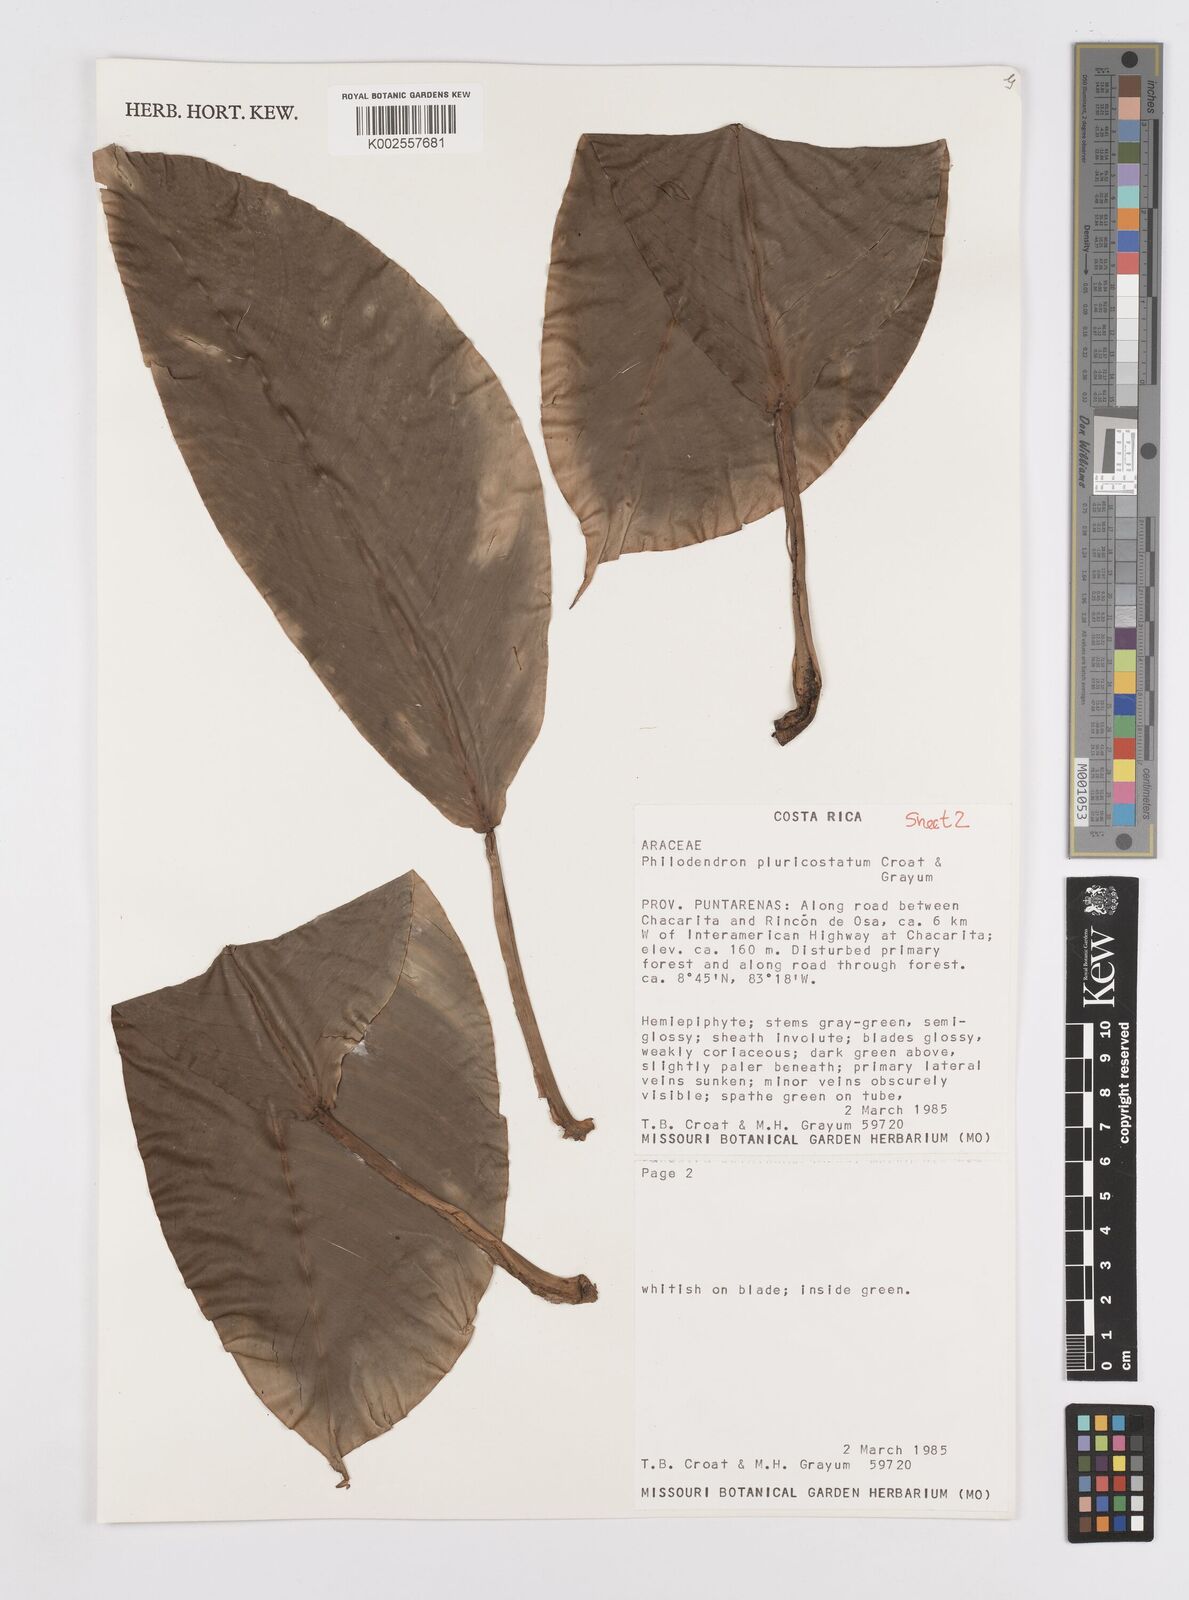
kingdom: Plantae
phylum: Tracheophyta
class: Liliopsida
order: Alismatales
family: Araceae
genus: Philodendron
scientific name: Philodendron
